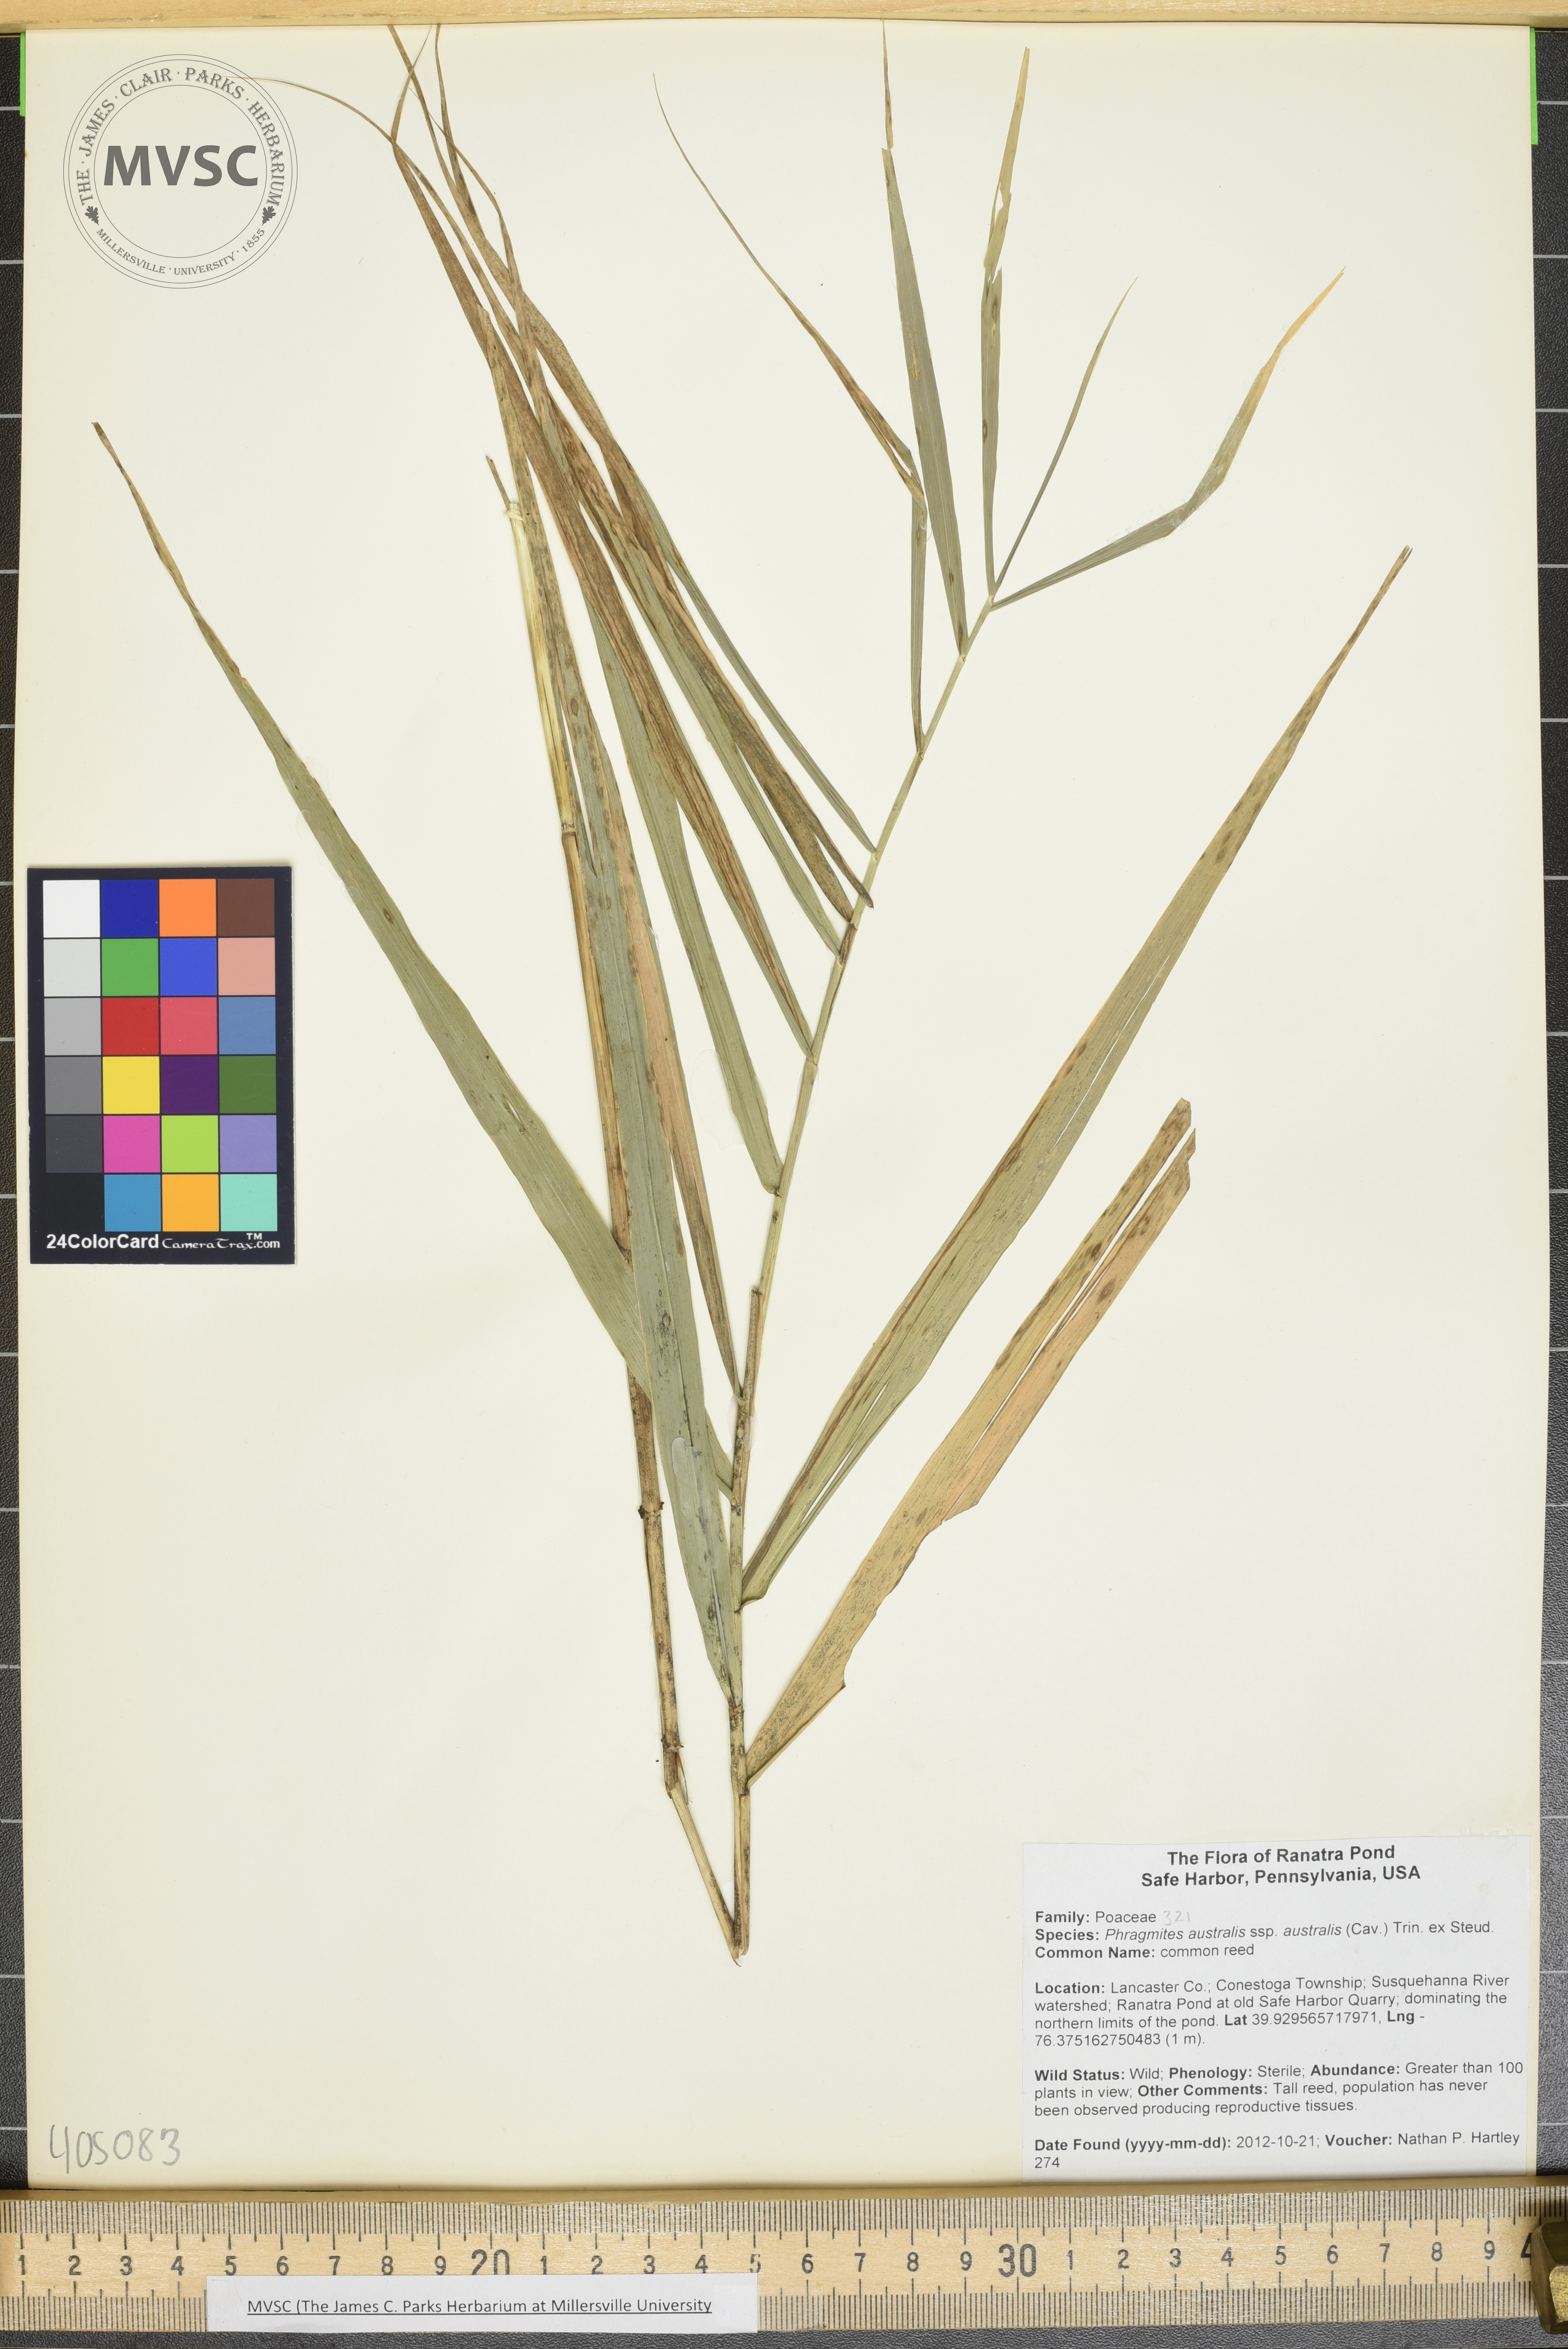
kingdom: Plantae
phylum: Tracheophyta
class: Liliopsida
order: Poales
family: Poaceae
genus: Phragmites
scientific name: Phragmites australis
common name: common reed
